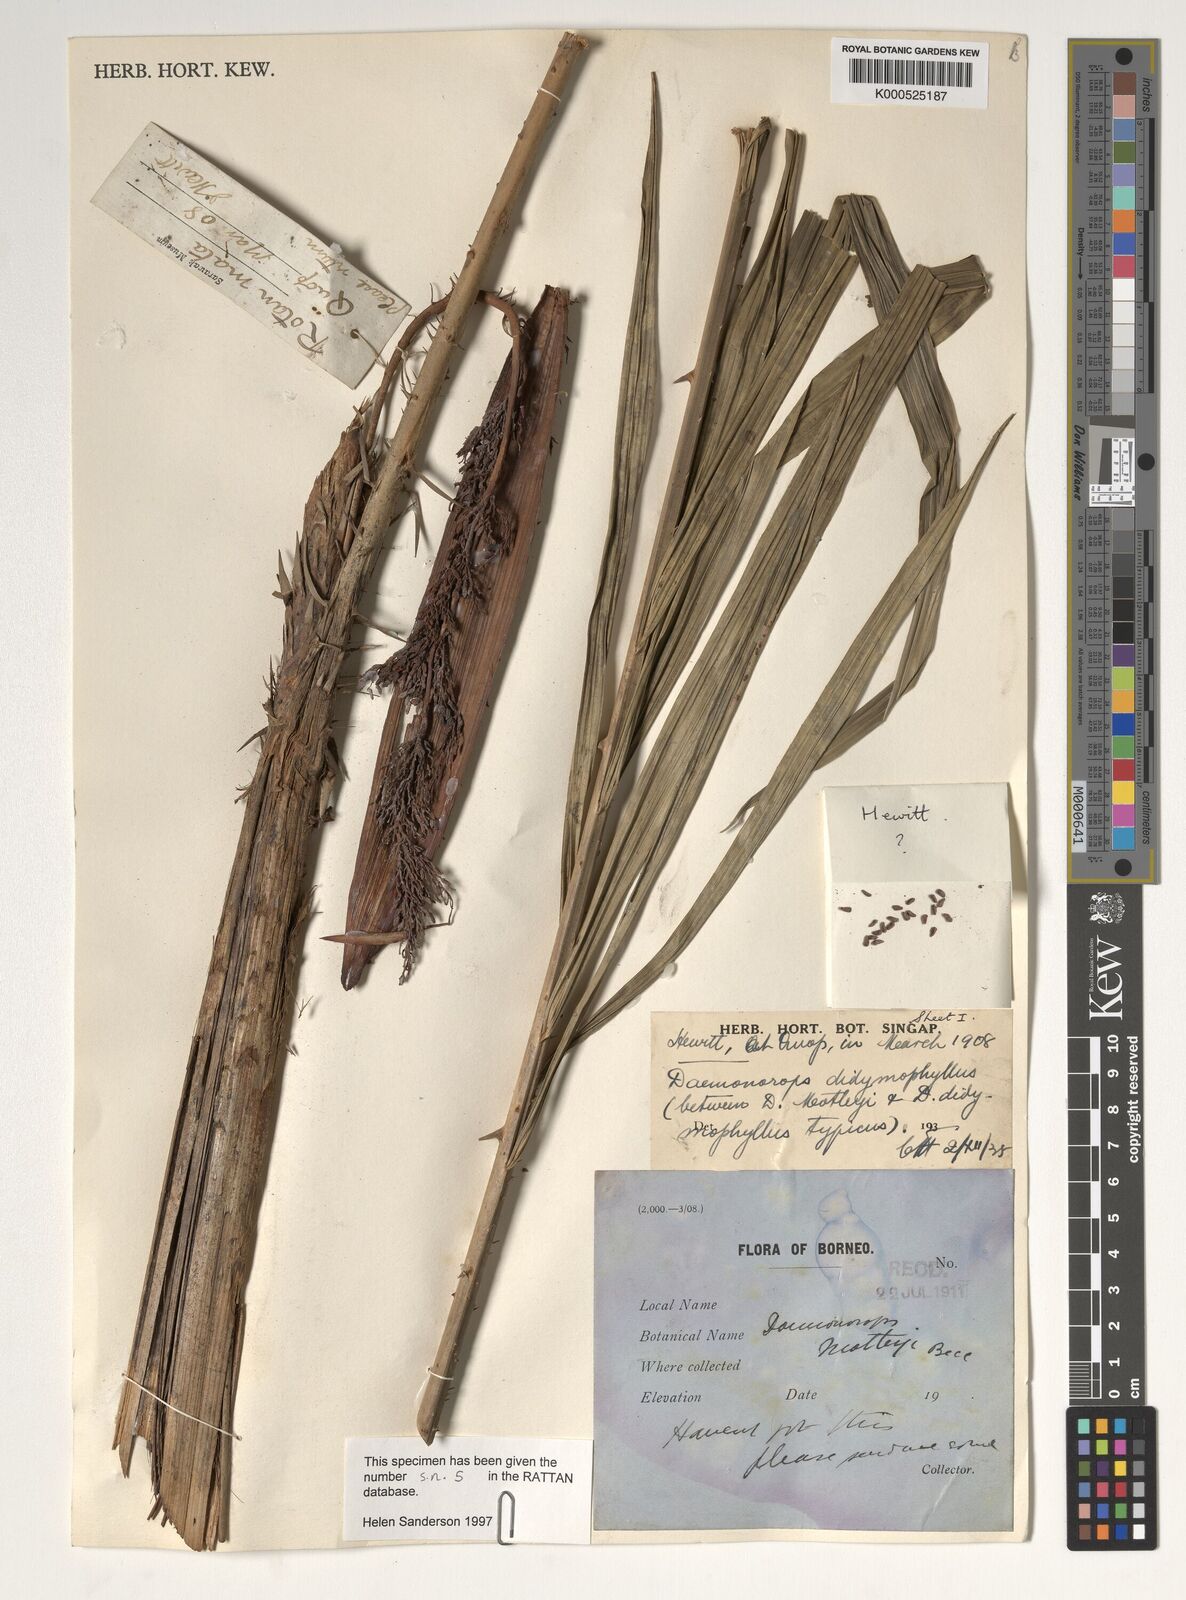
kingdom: Plantae
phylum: Tracheophyta
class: Liliopsida
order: Arecales
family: Arecaceae
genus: Calamus
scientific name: Calamus gracilipes
